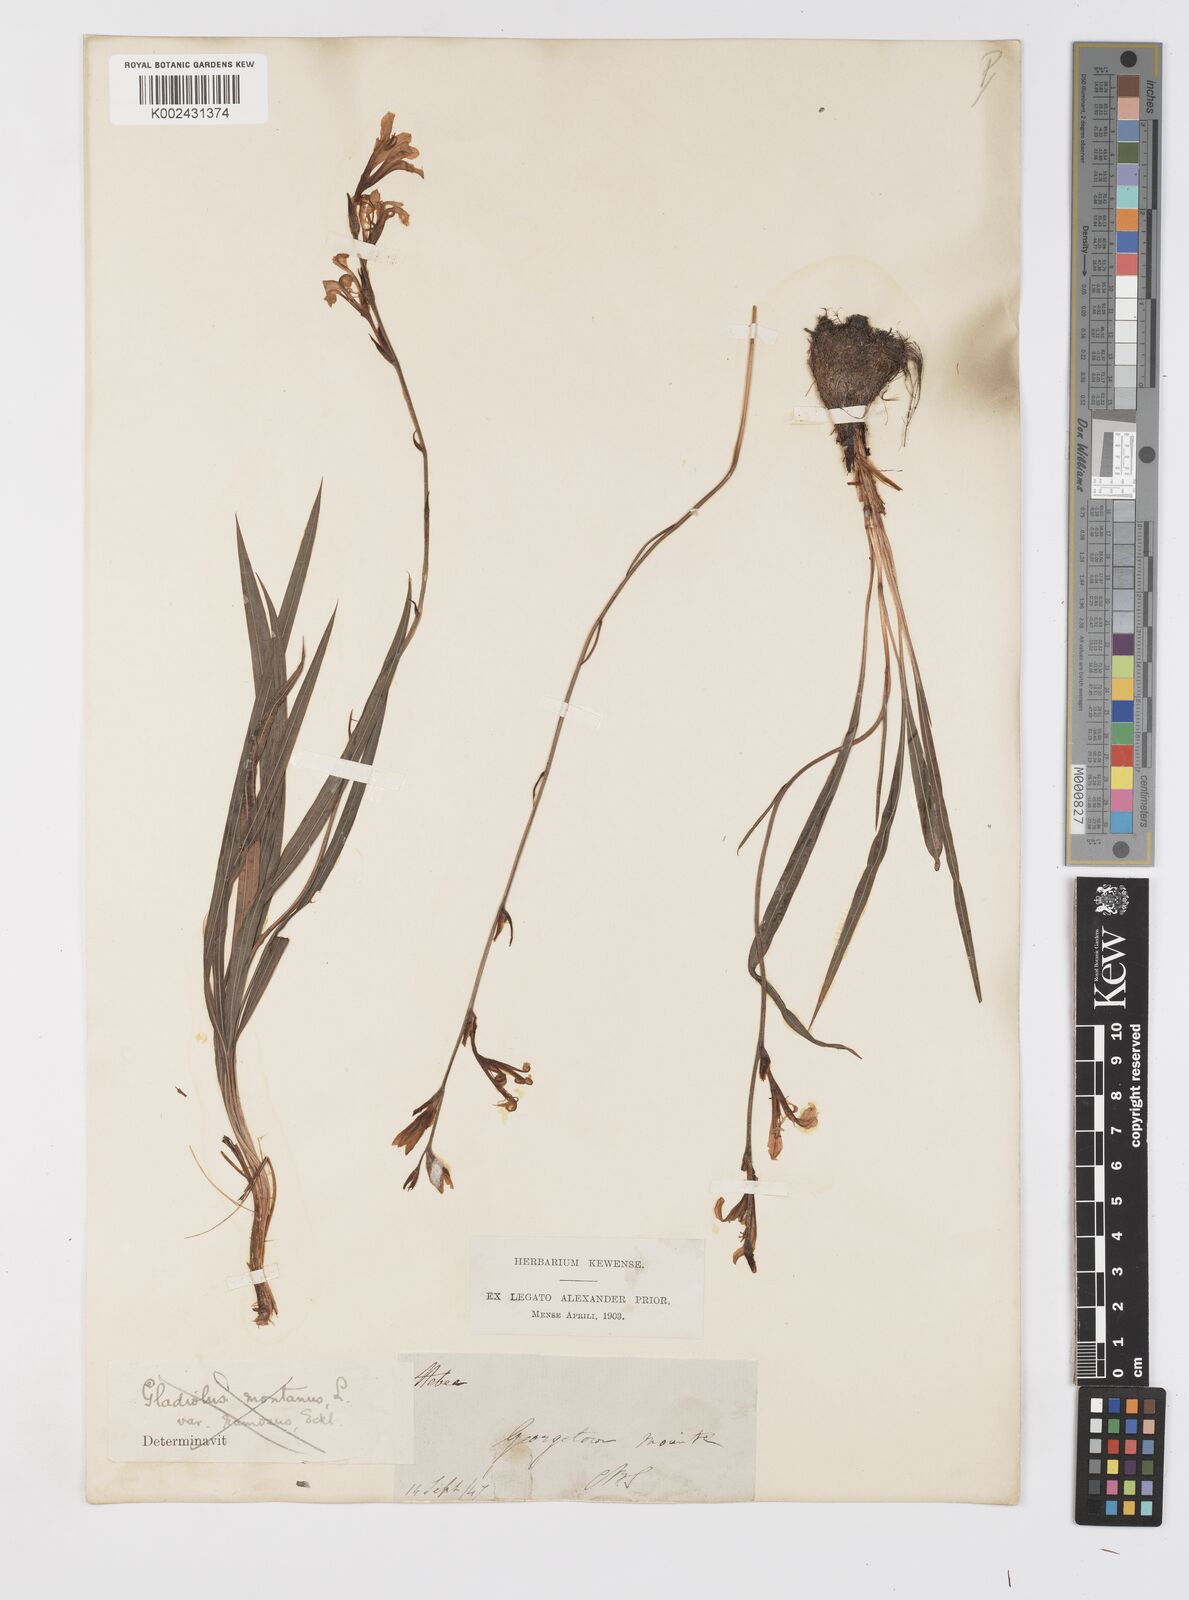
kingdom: Plantae
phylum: Tracheophyta
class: Liliopsida
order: Asparagales
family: Iridaceae
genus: Tritoniopsis
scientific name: Tritoniopsis unguicularis
